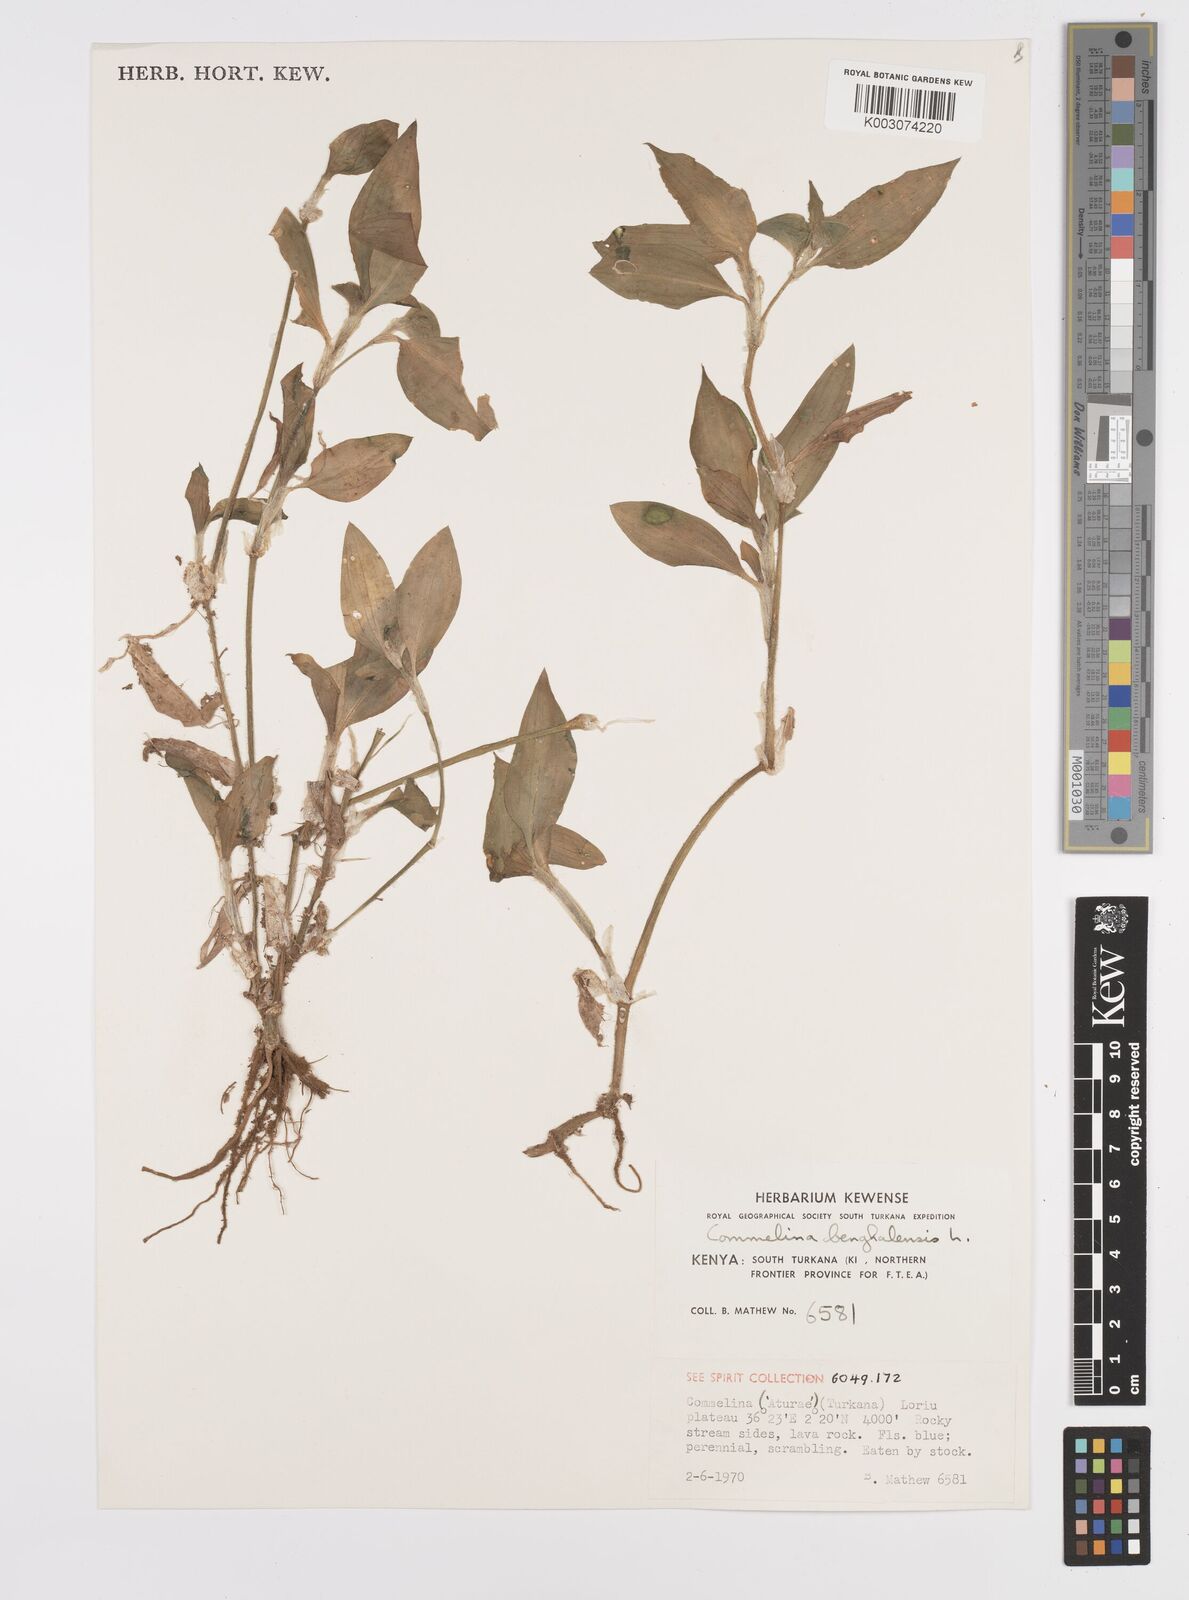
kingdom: Plantae
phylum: Tracheophyta
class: Liliopsida
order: Commelinales
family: Commelinaceae
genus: Commelina
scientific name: Commelina benghalensis
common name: Jio
